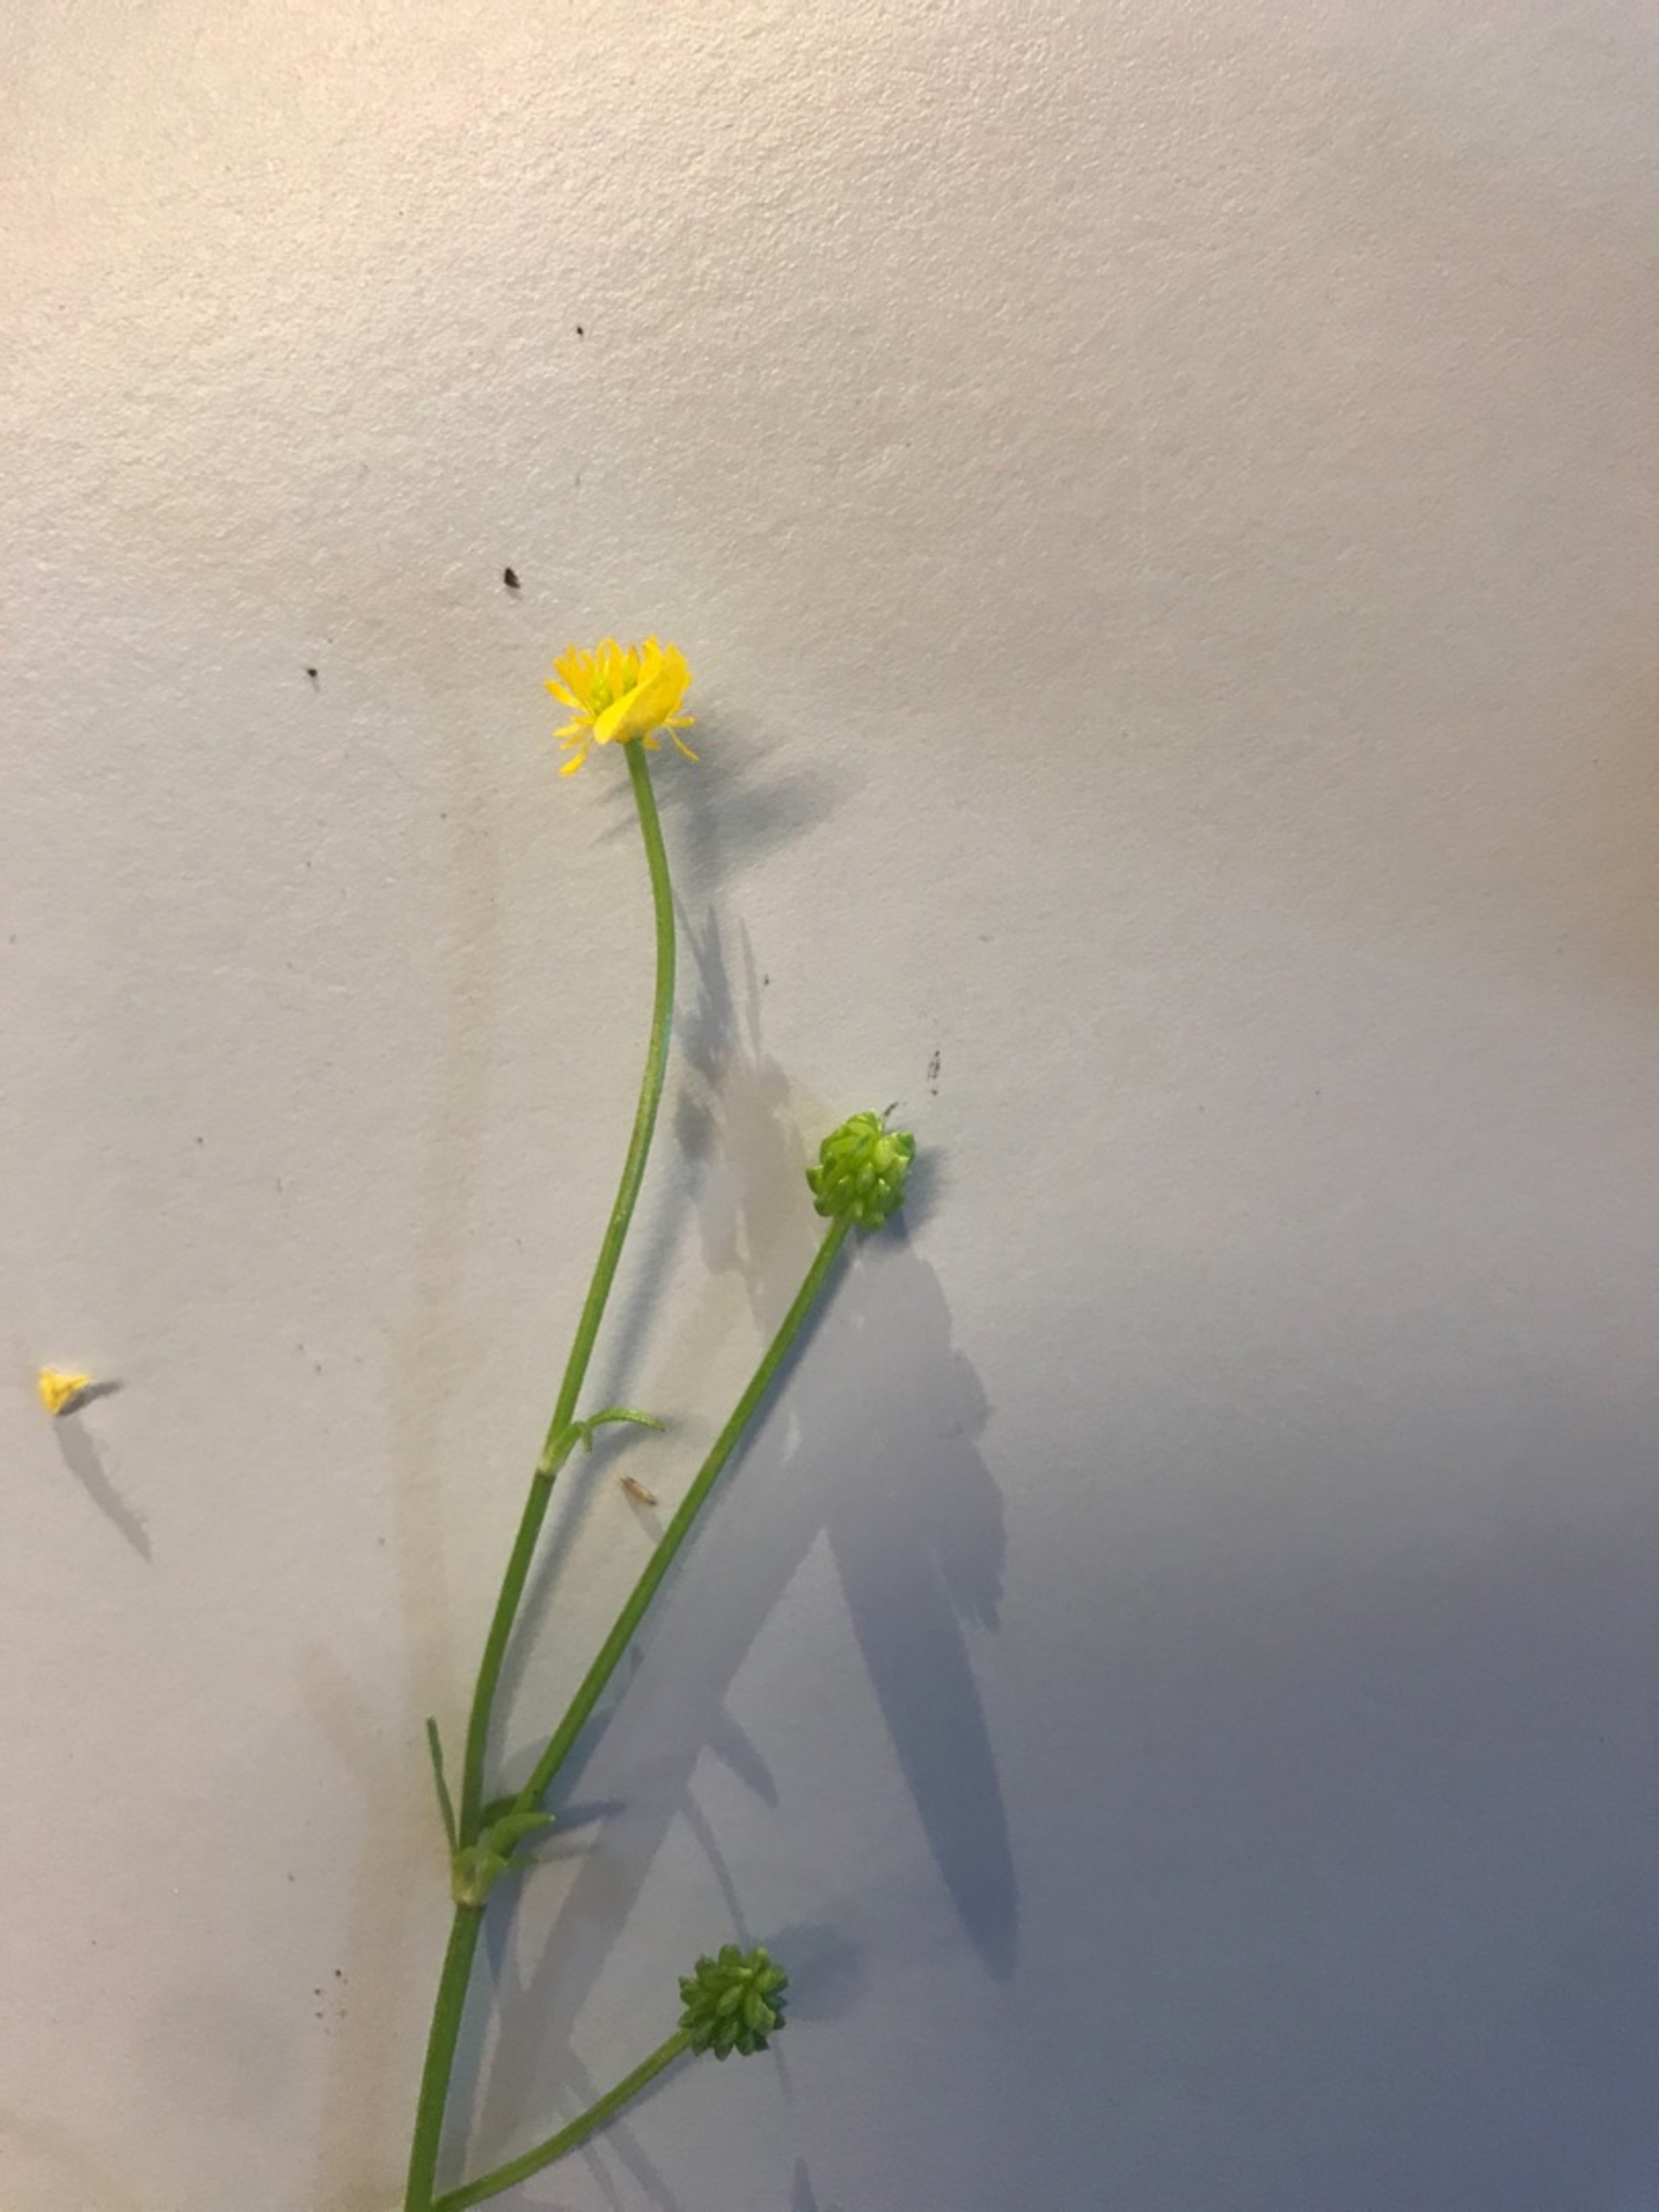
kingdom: Plantae
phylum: Tracheophyta
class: Magnoliopsida
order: Ranunculales
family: Ranunculaceae
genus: Ranunculus
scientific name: Ranunculus sardous
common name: Stivhåret ranunkel
